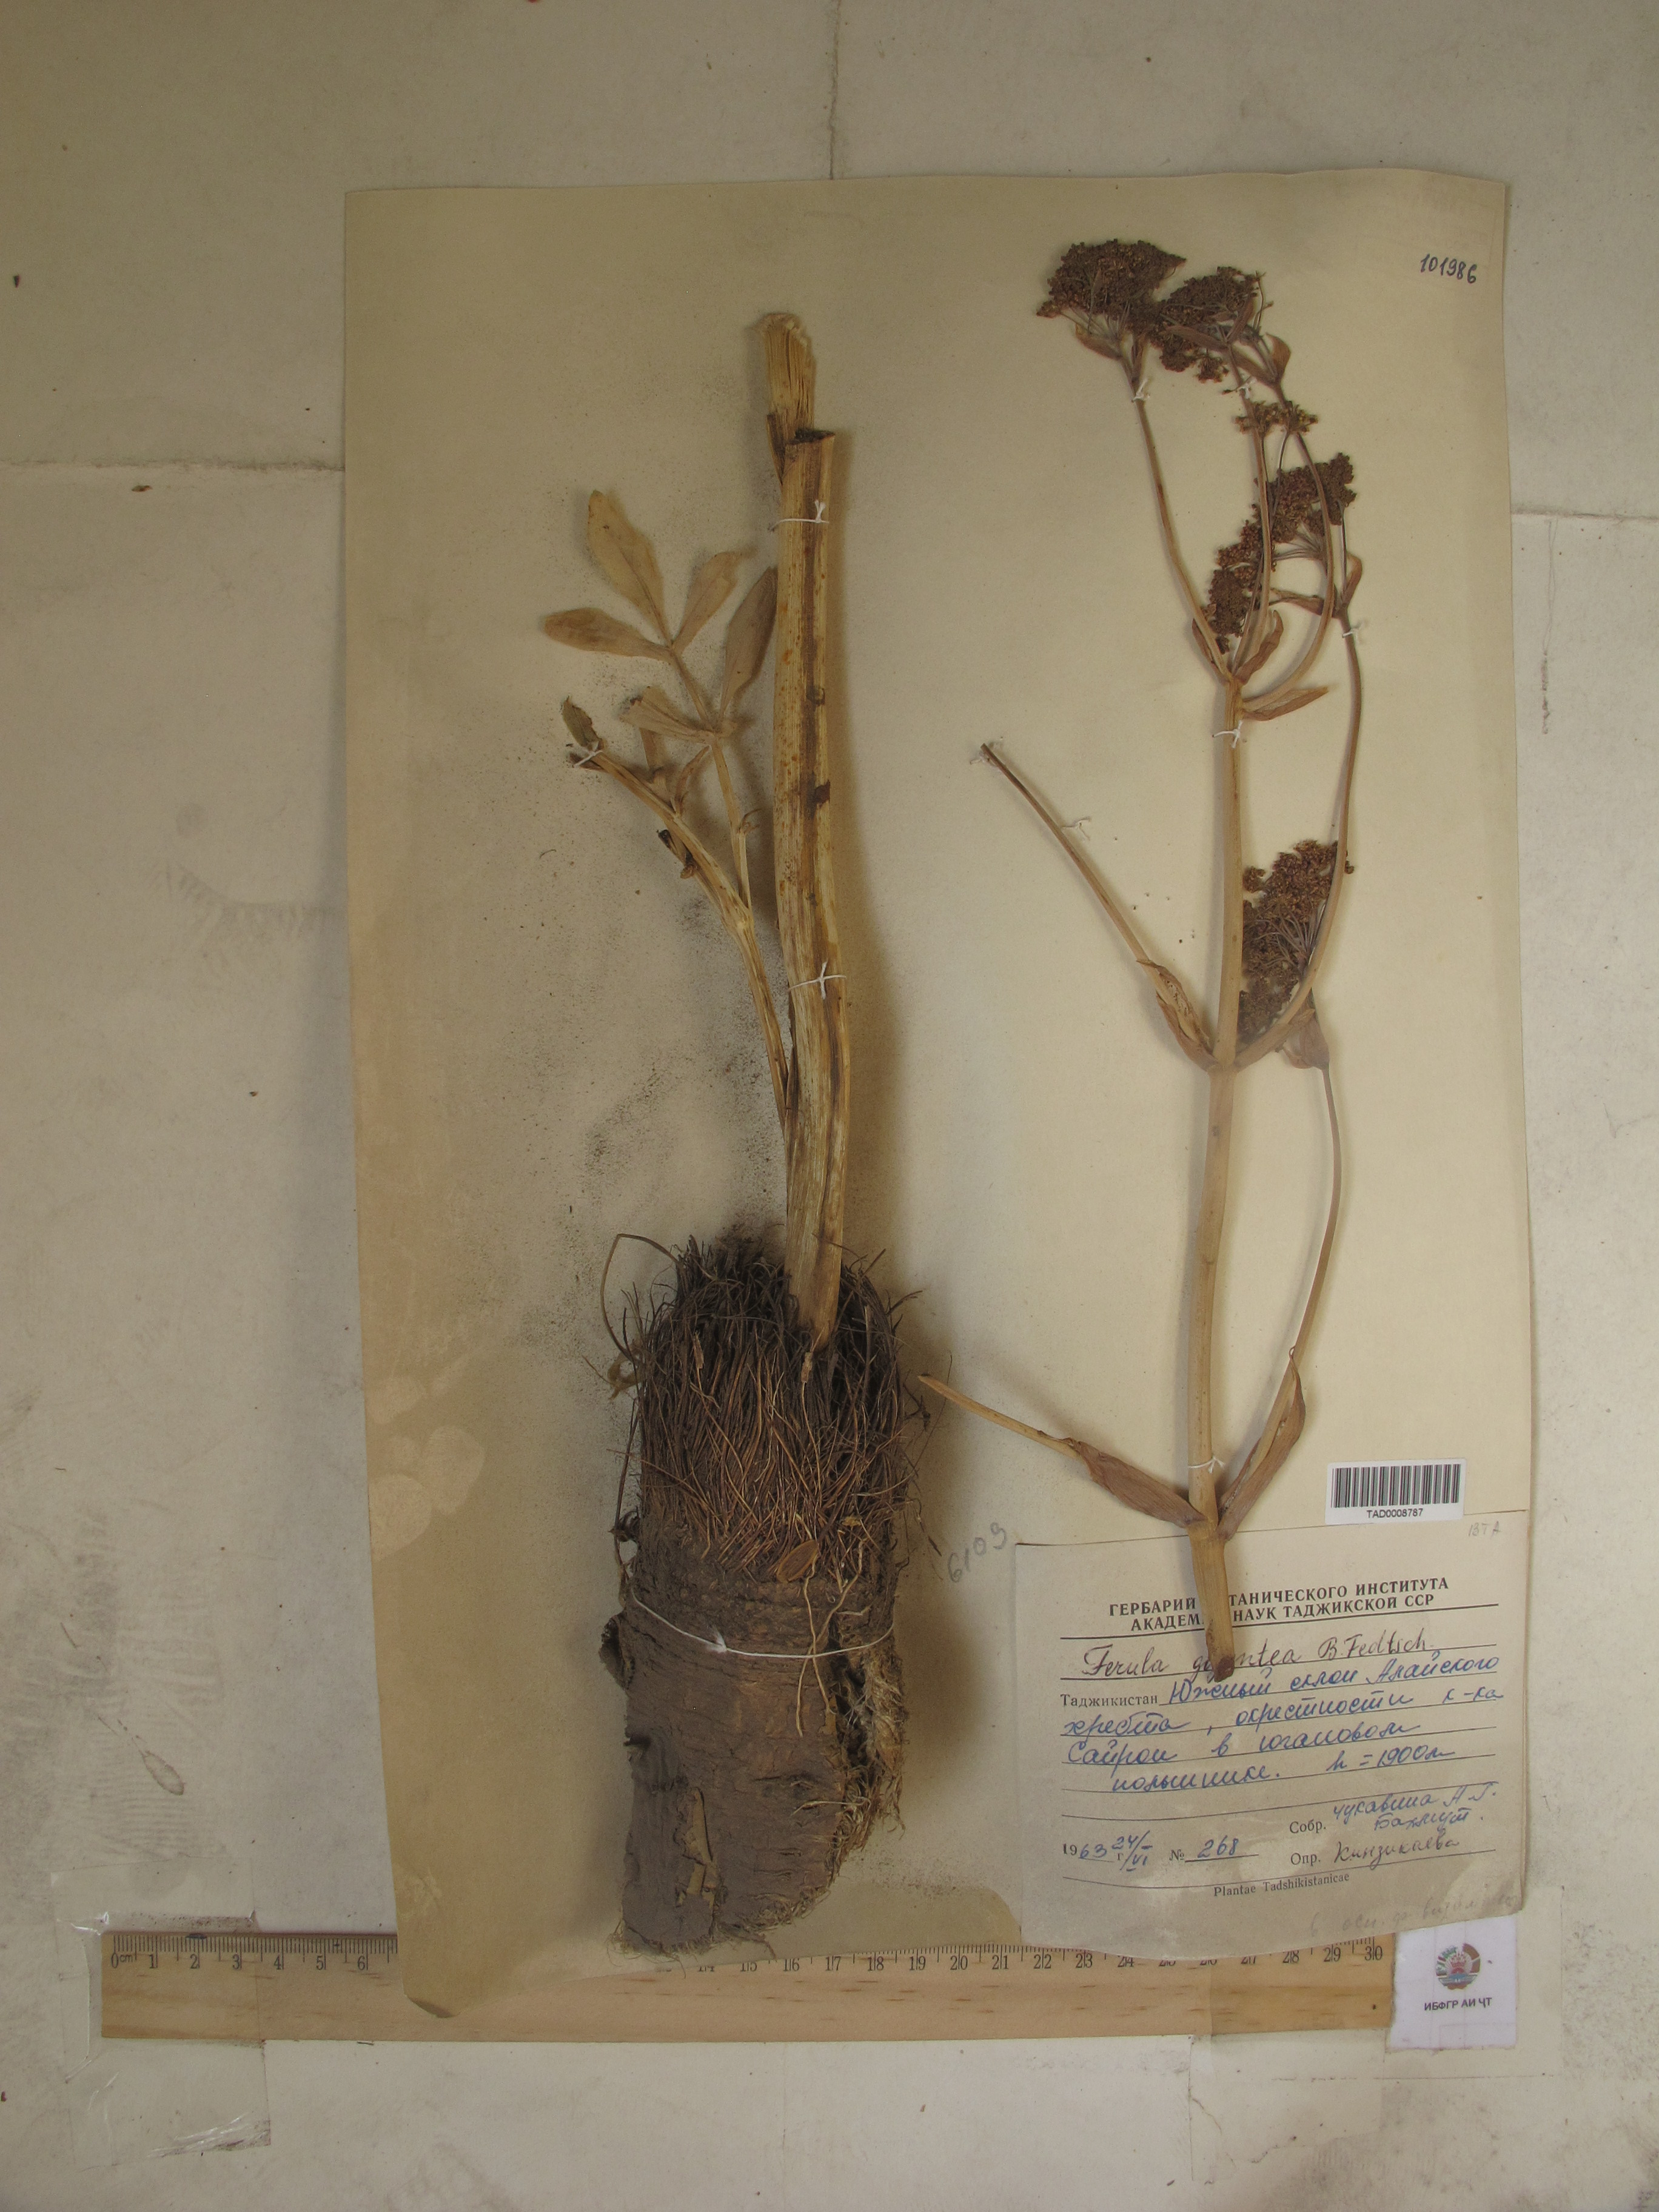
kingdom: Plantae
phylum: Tracheophyta
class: Magnoliopsida
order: Apiales
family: Apiaceae
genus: Ferula
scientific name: Ferula gigantea
